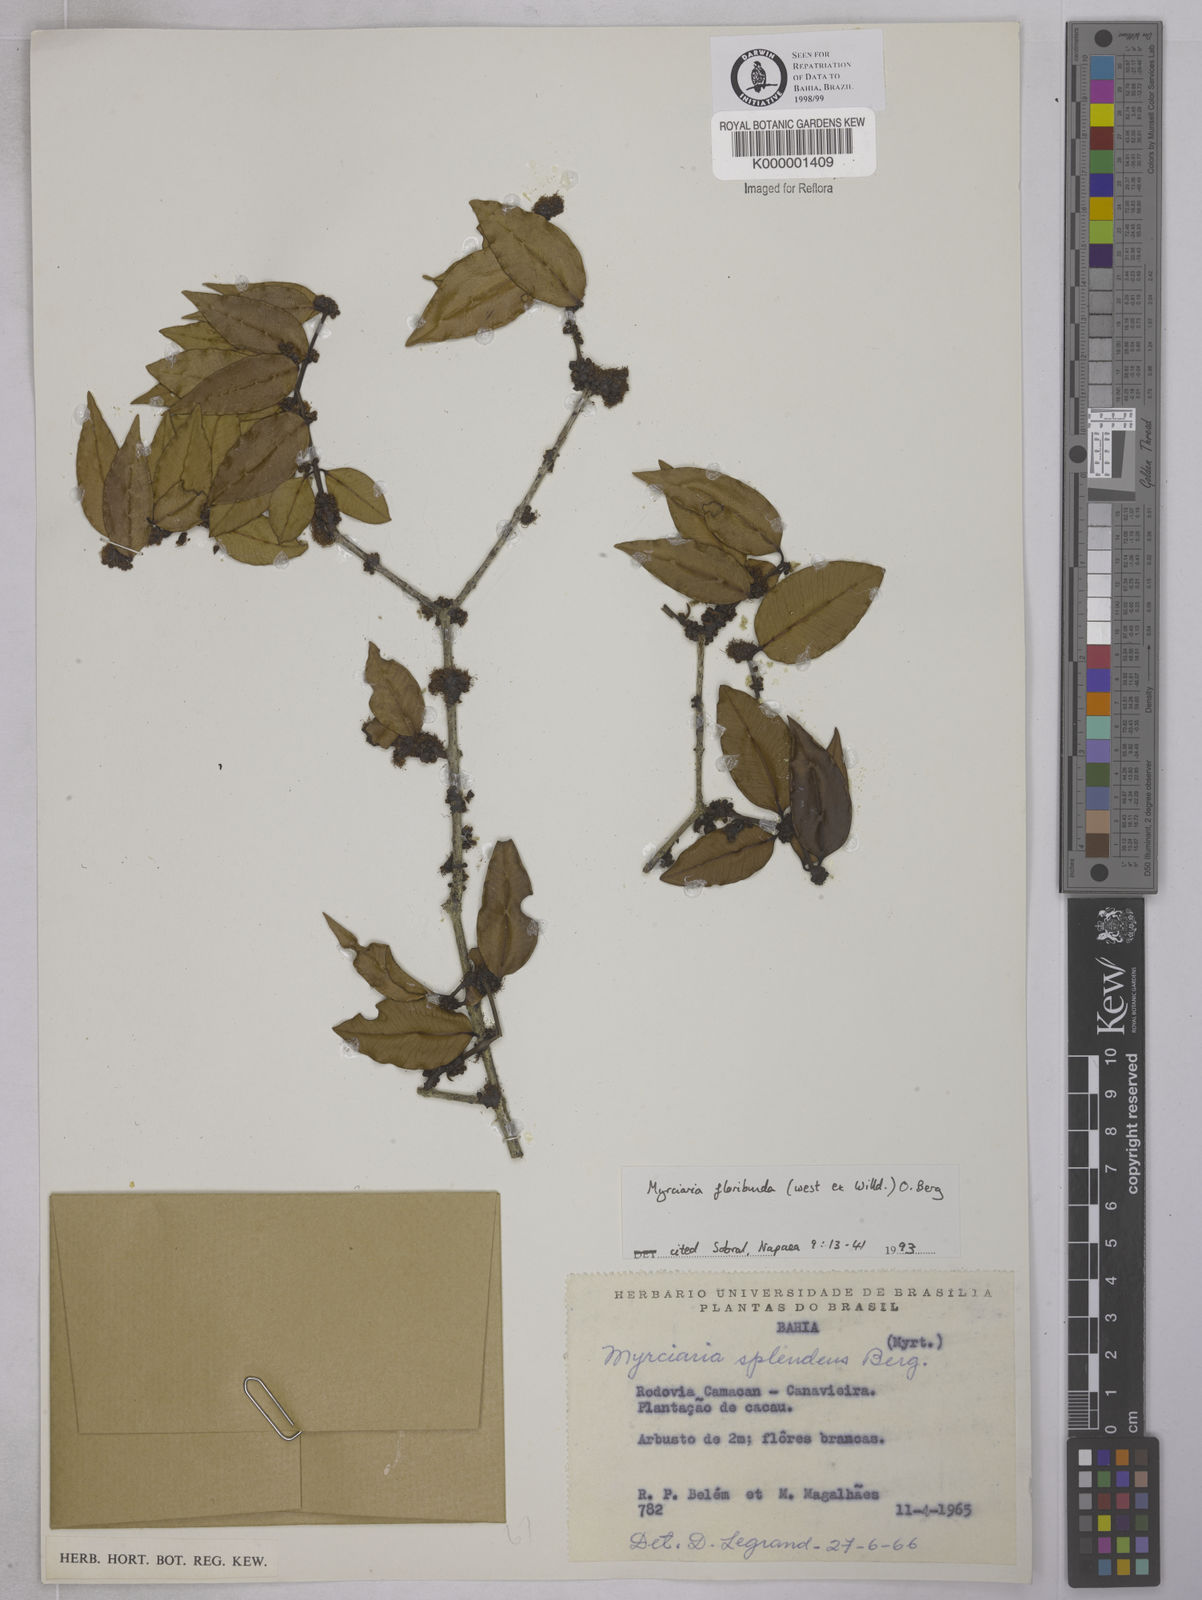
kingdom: Plantae
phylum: Tracheophyta
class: Magnoliopsida
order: Myrtales
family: Myrtaceae
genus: Myrciaria
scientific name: Myrciaria floribunda
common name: Guavaberry
